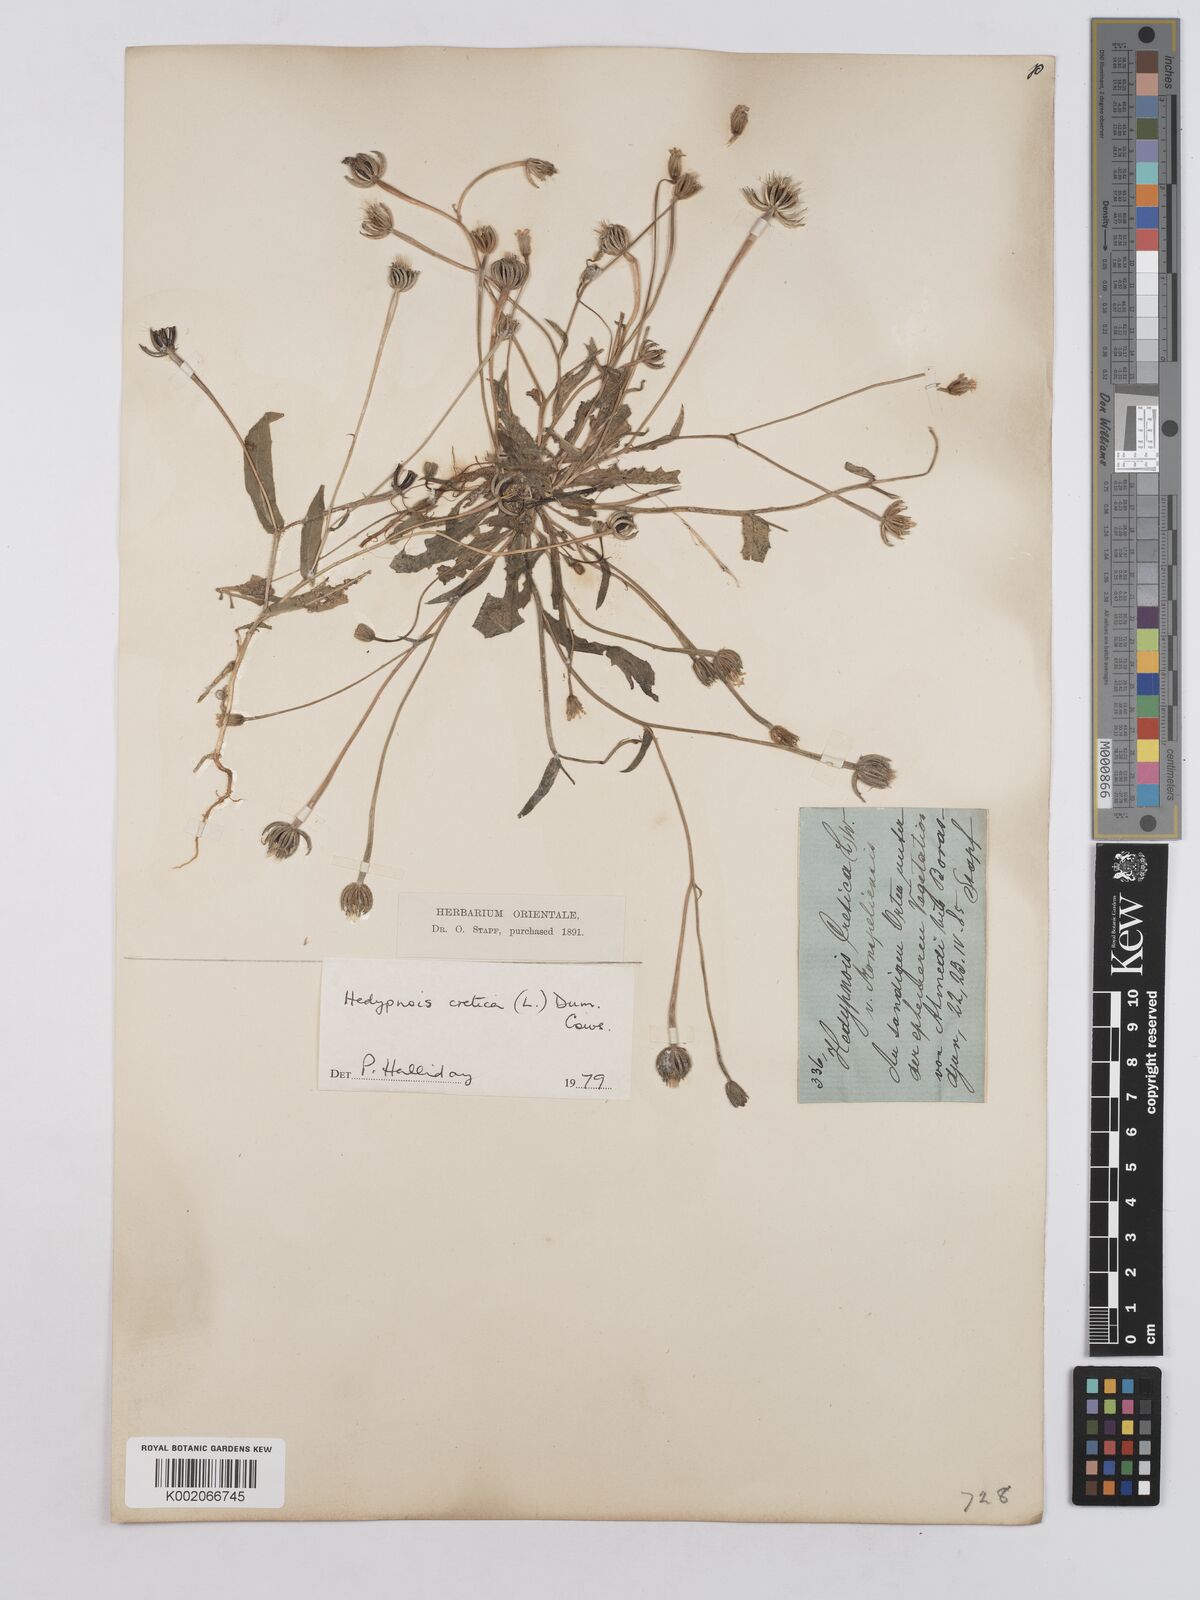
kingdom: Plantae
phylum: Tracheophyta
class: Magnoliopsida
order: Asterales
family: Asteraceae
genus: Hedypnois
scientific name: Hedypnois cretica
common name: Scaly hawkbit
